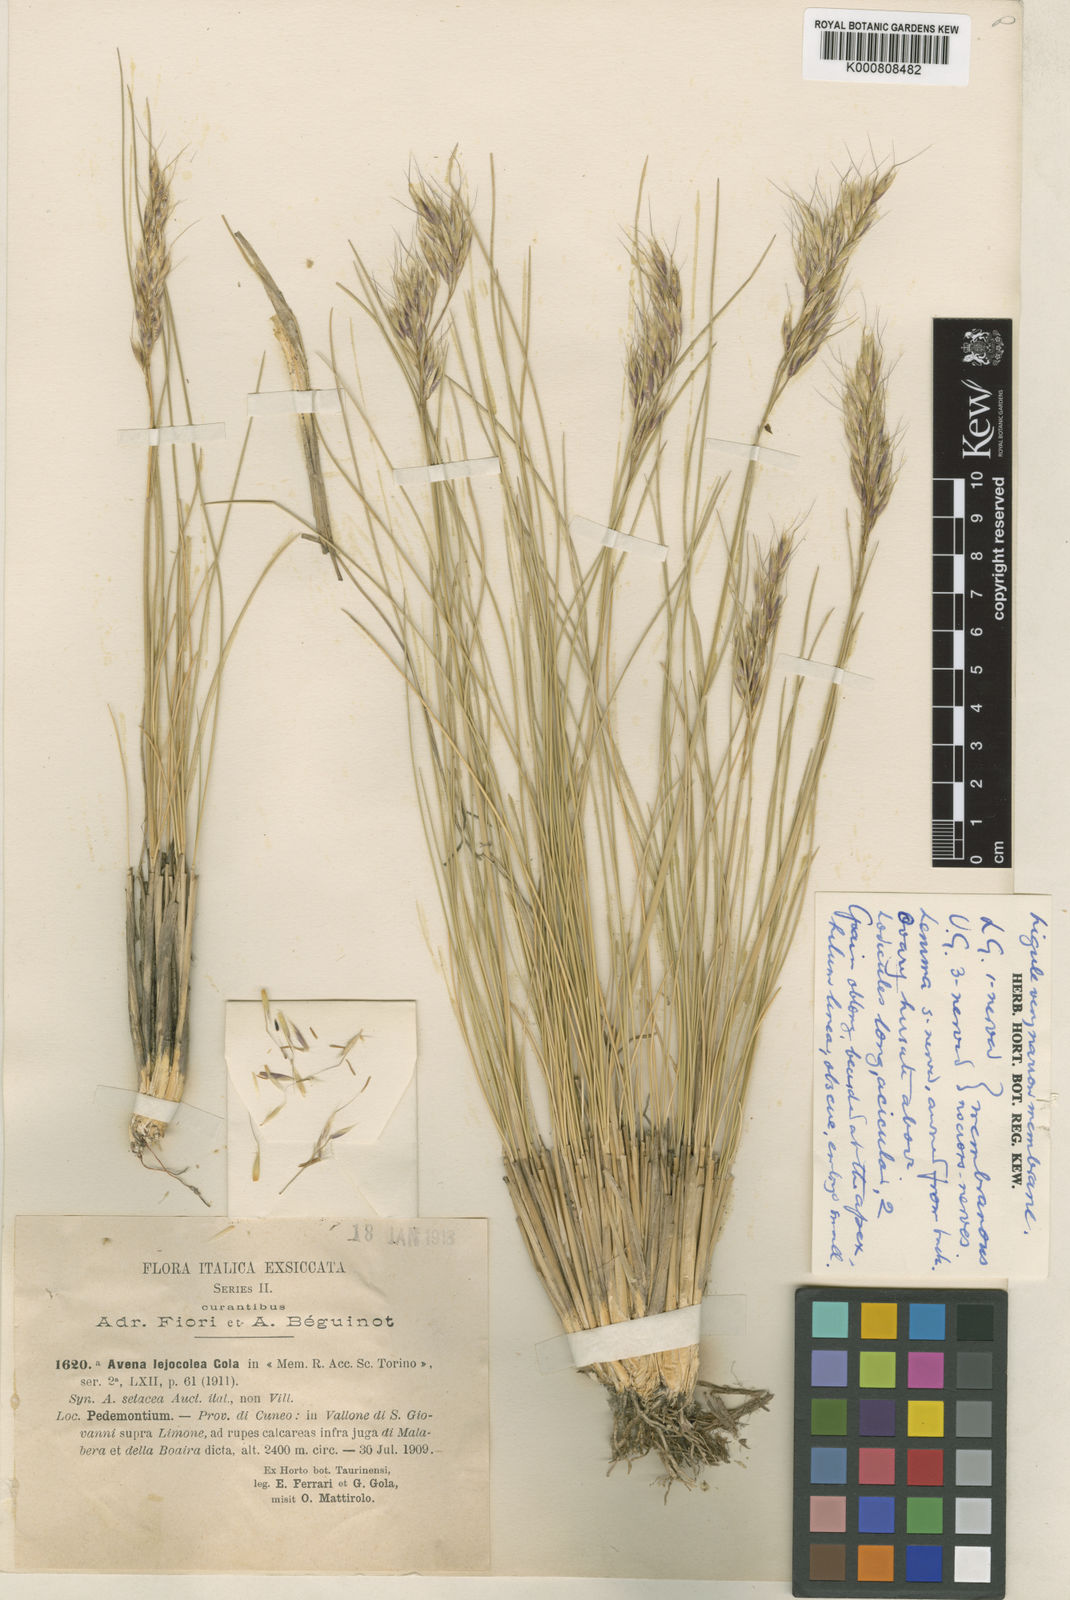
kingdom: Plantae
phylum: Tracheophyta
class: Liliopsida
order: Poales
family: Poaceae
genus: Helictotrichon
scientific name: Helictotrichon setaceum
